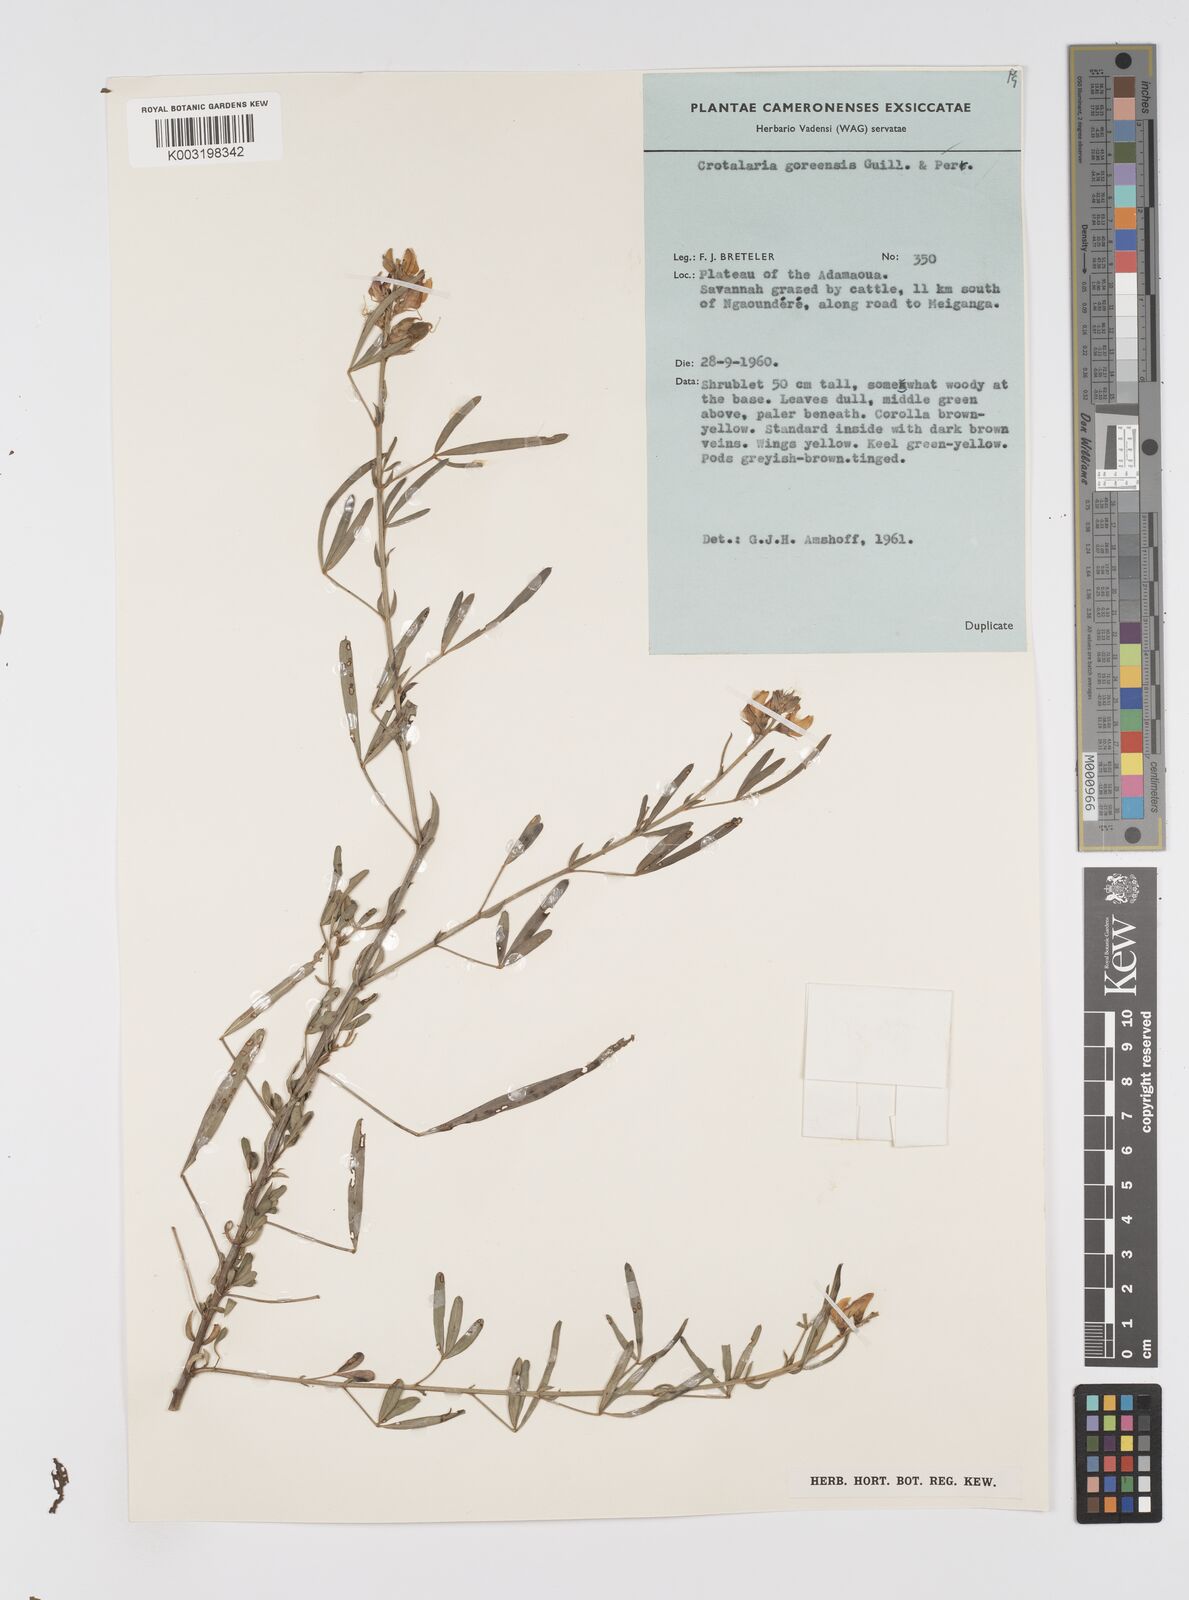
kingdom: Plantae
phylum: Tracheophyta
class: Magnoliopsida
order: Fabales
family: Fabaceae
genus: Crotalaria
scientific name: Crotalaria goreensis
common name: Gambia-pea
